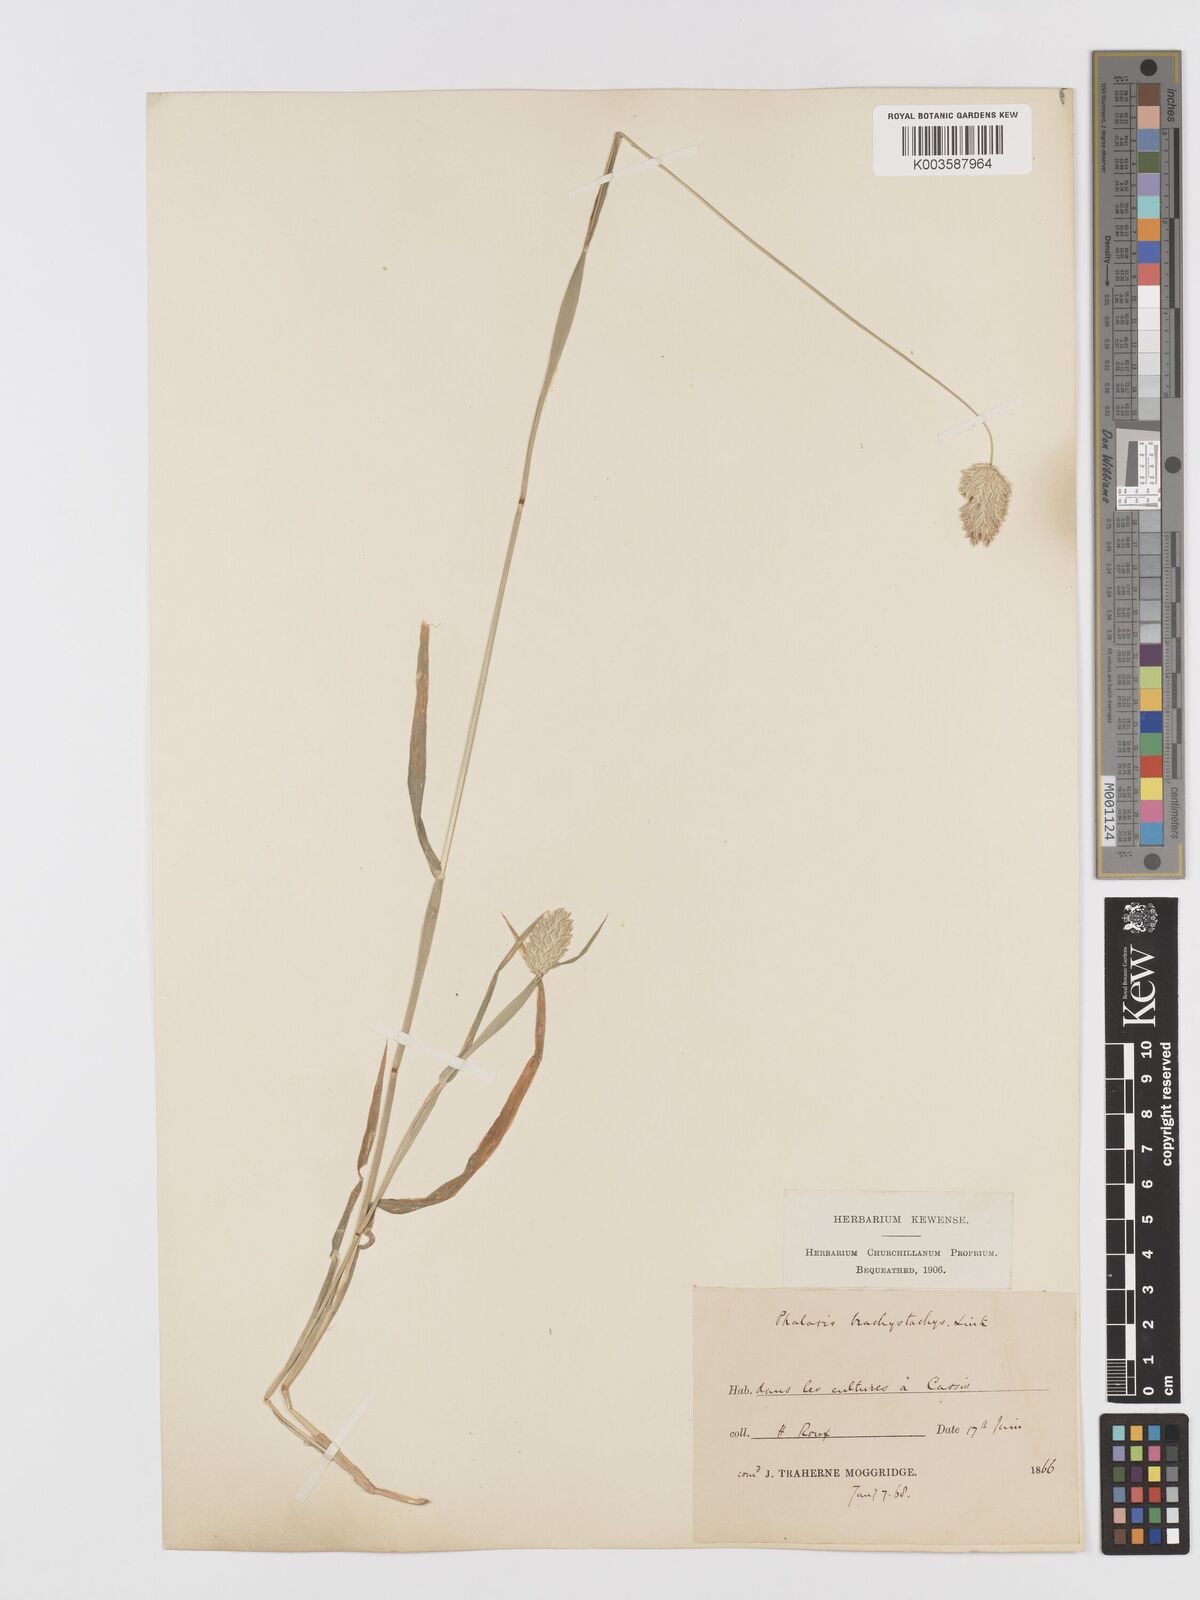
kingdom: Plantae
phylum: Tracheophyta
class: Liliopsida
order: Poales
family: Poaceae
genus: Phalaris
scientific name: Phalaris brachystachys
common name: Confused canary-grass
